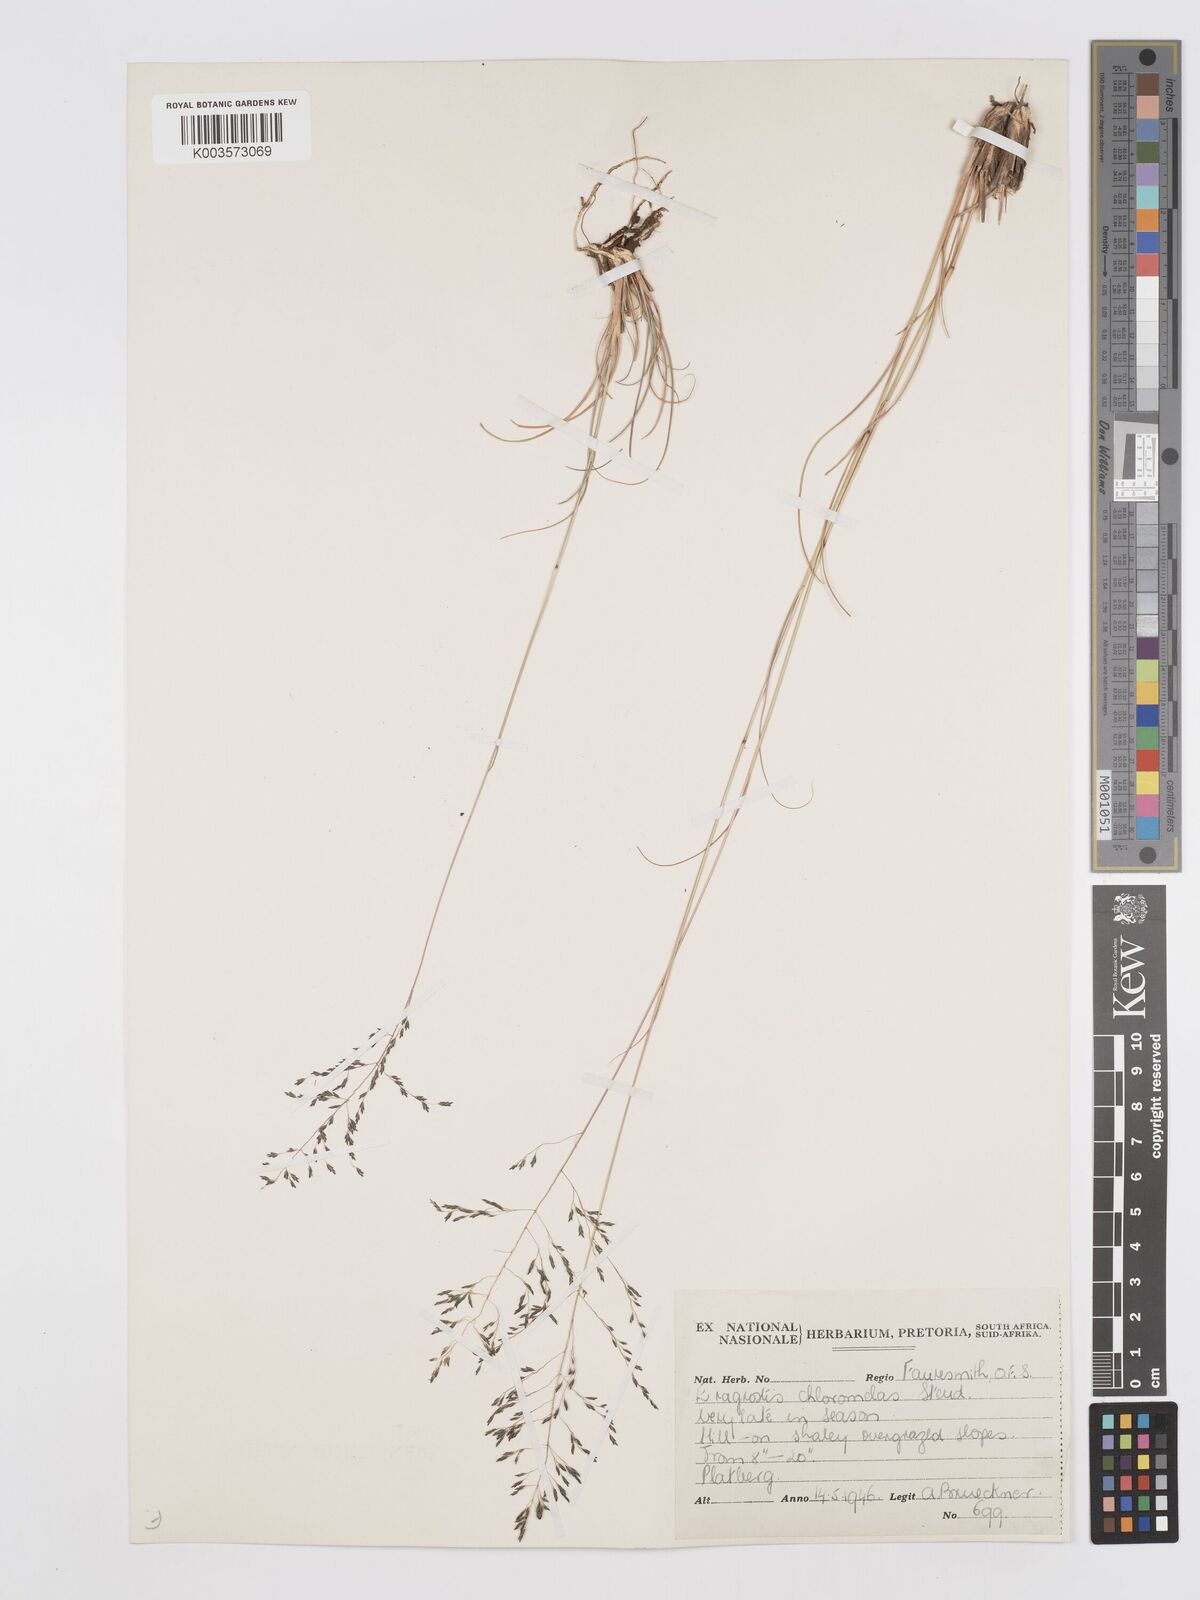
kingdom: Plantae
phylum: Tracheophyta
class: Liliopsida
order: Poales
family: Poaceae
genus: Eragrostis
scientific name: Eragrostis curvula
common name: African love-grass
